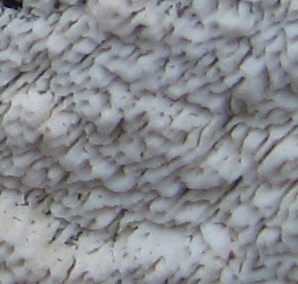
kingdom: Fungi
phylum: Basidiomycota
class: Agaricomycetes
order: Hymenochaetales
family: Schizoporaceae
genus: Xylodon
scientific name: Xylodon
